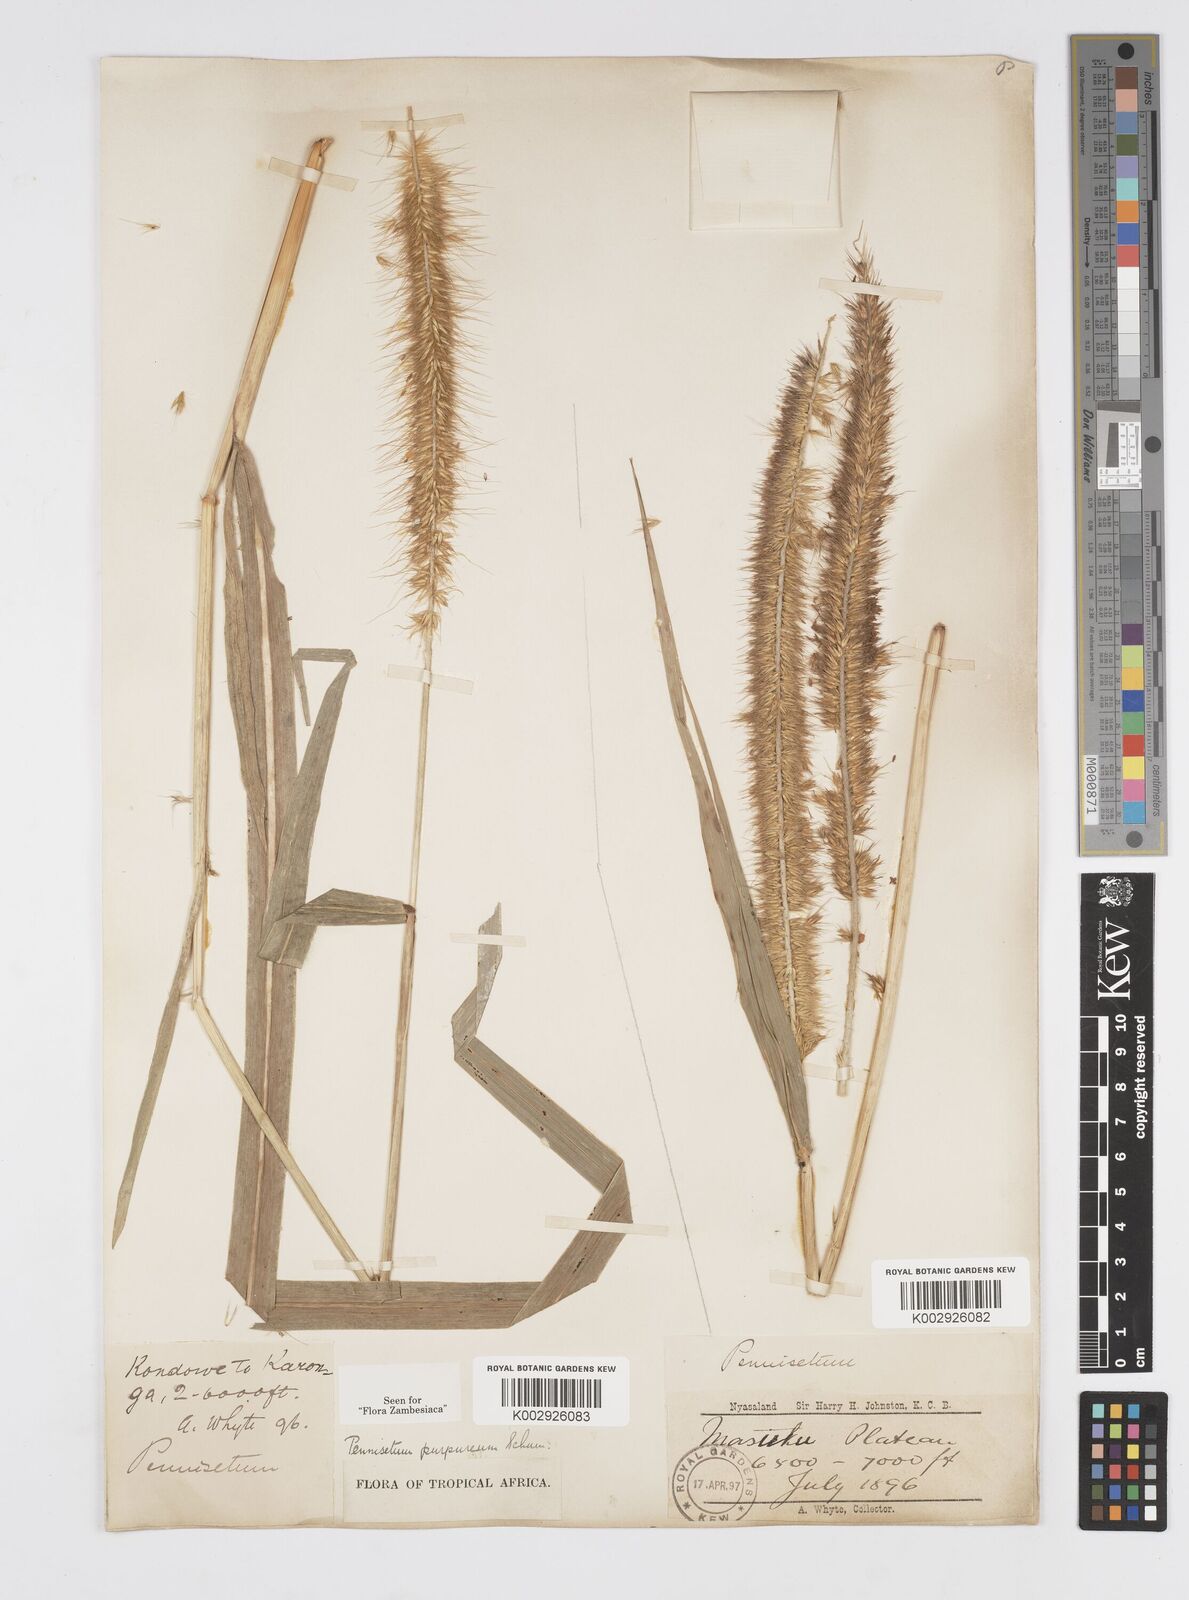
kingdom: Plantae
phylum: Tracheophyta
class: Liliopsida
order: Poales
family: Poaceae
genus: Cenchrus
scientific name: Cenchrus purpureus
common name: Elephant grass
